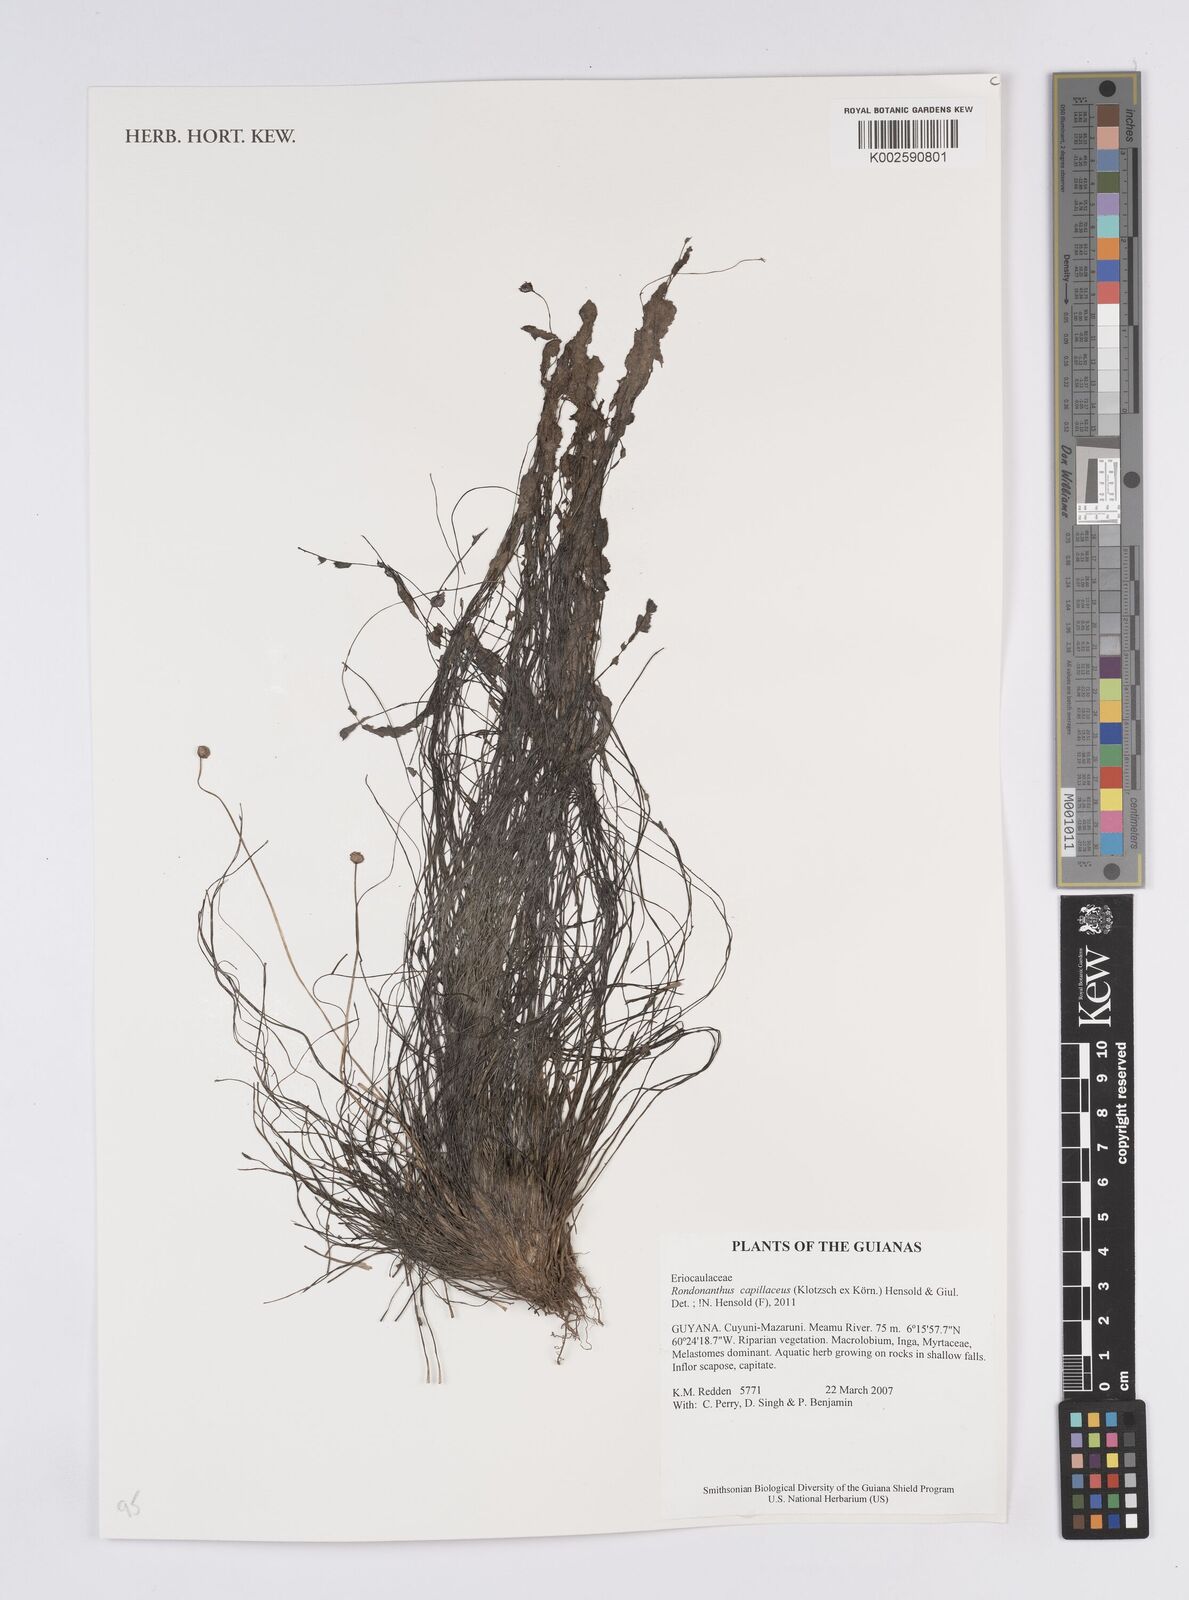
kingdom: Plantae
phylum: Tracheophyta
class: Liliopsida
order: Poales
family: Eriocaulaceae
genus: Rondonanthus
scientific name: Rondonanthus capillaceus
